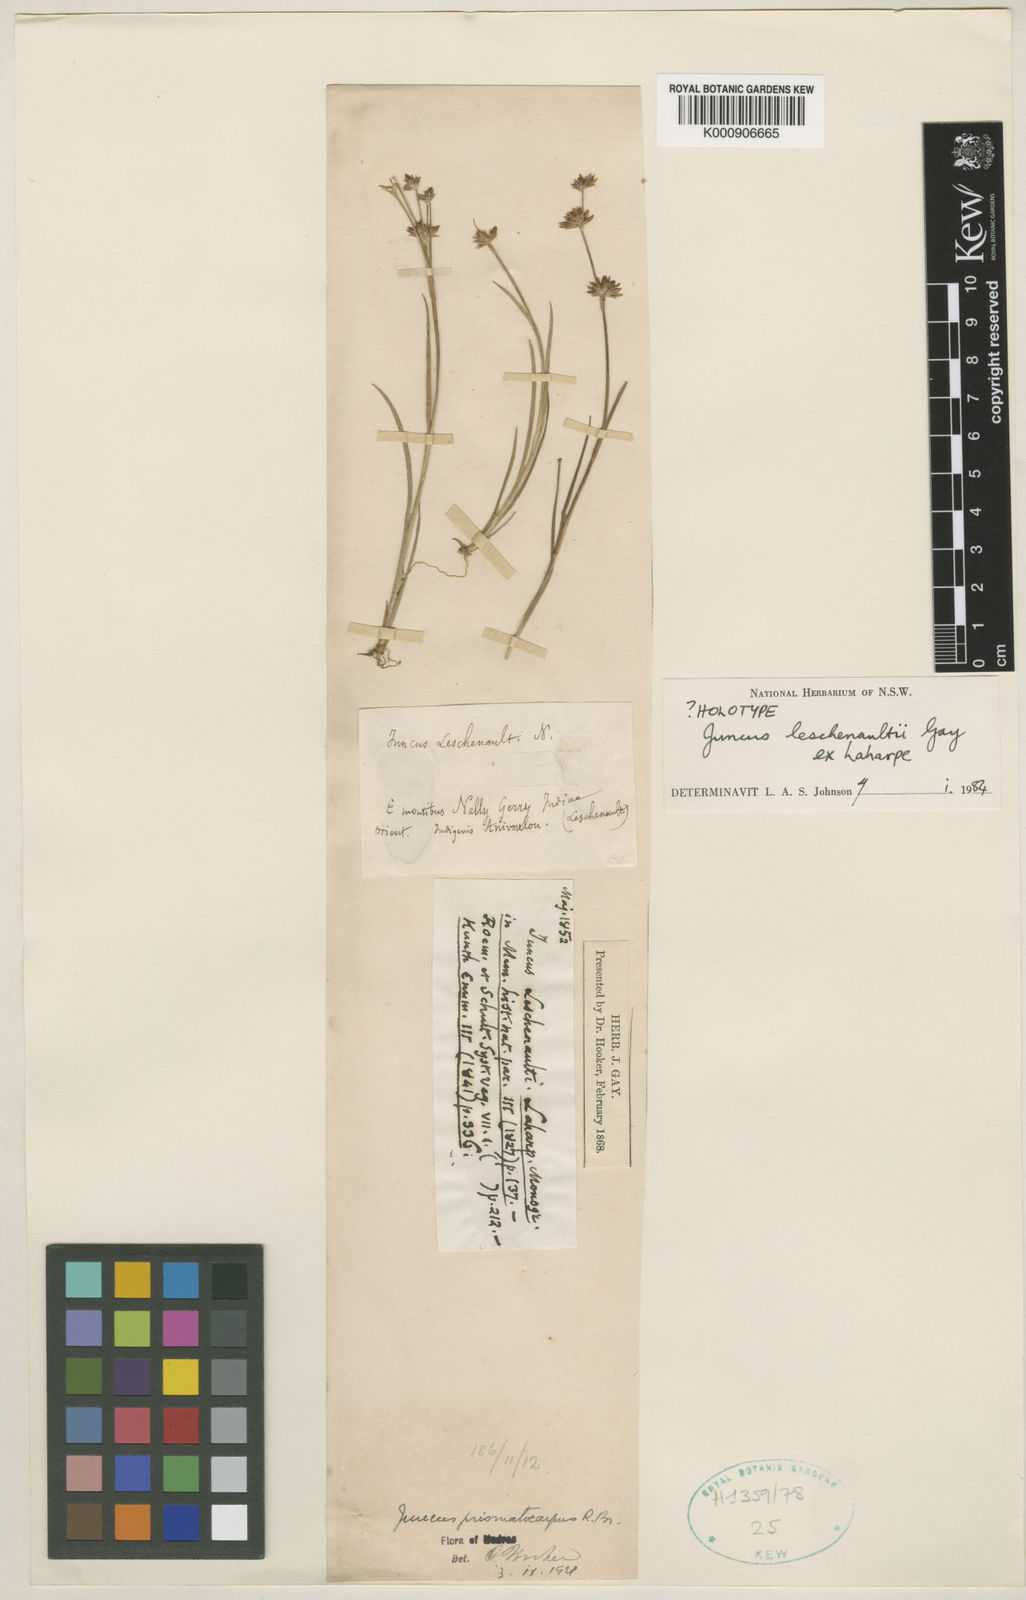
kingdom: Plantae
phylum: Tracheophyta
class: Liliopsida
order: Poales
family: Juncaceae
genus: Juncus
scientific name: Juncus prismatocarpus
